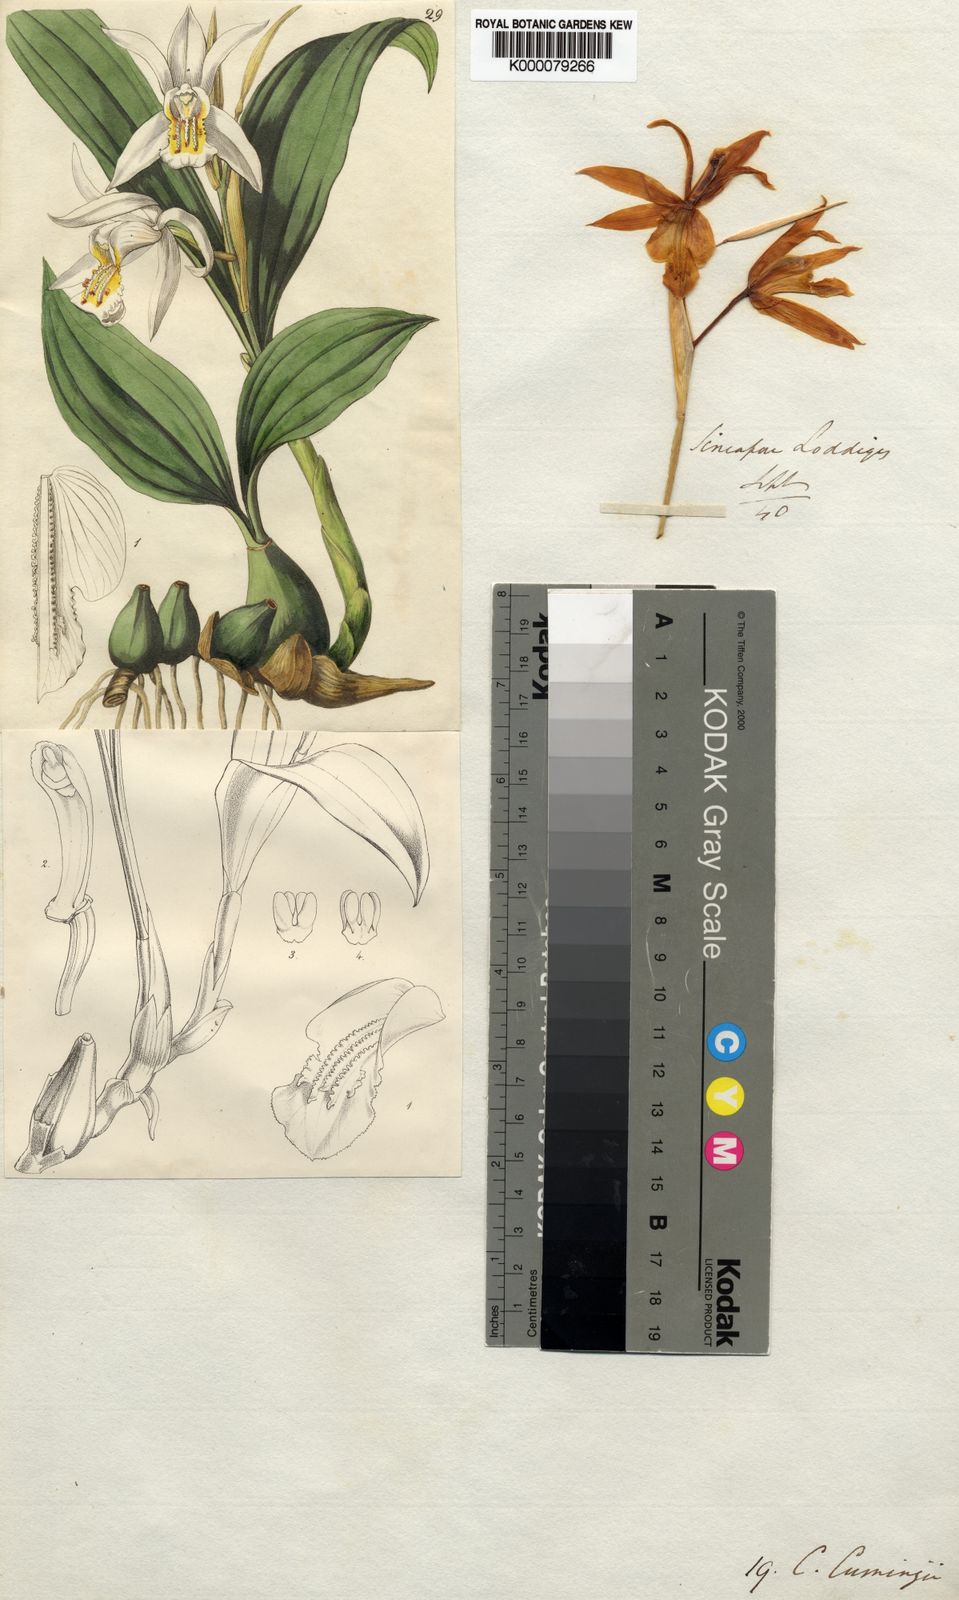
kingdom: Plantae
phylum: Tracheophyta
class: Liliopsida
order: Asparagales
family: Orchidaceae
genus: Coelogyne
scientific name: Coelogyne cumingii
